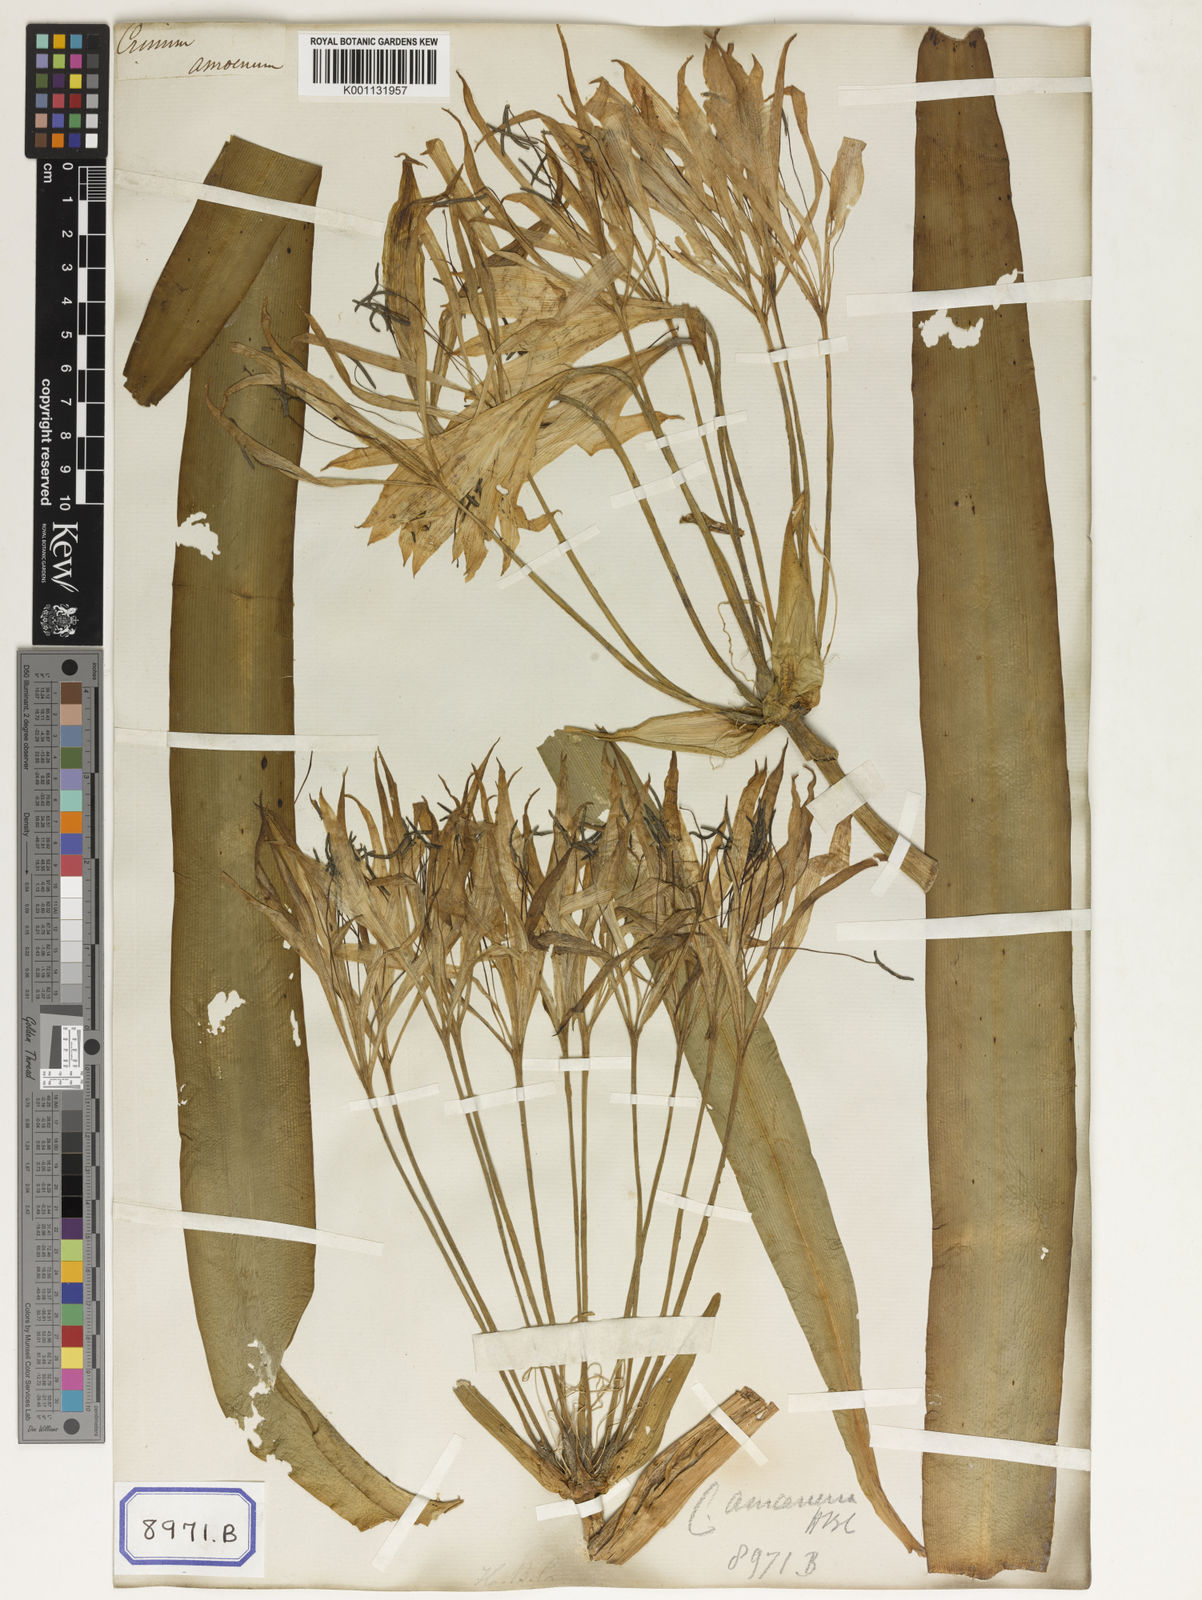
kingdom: Plantae
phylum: Tracheophyta
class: Liliopsida
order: Asparagales
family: Amaryllidaceae
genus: Crinum
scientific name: Crinum amoenum
